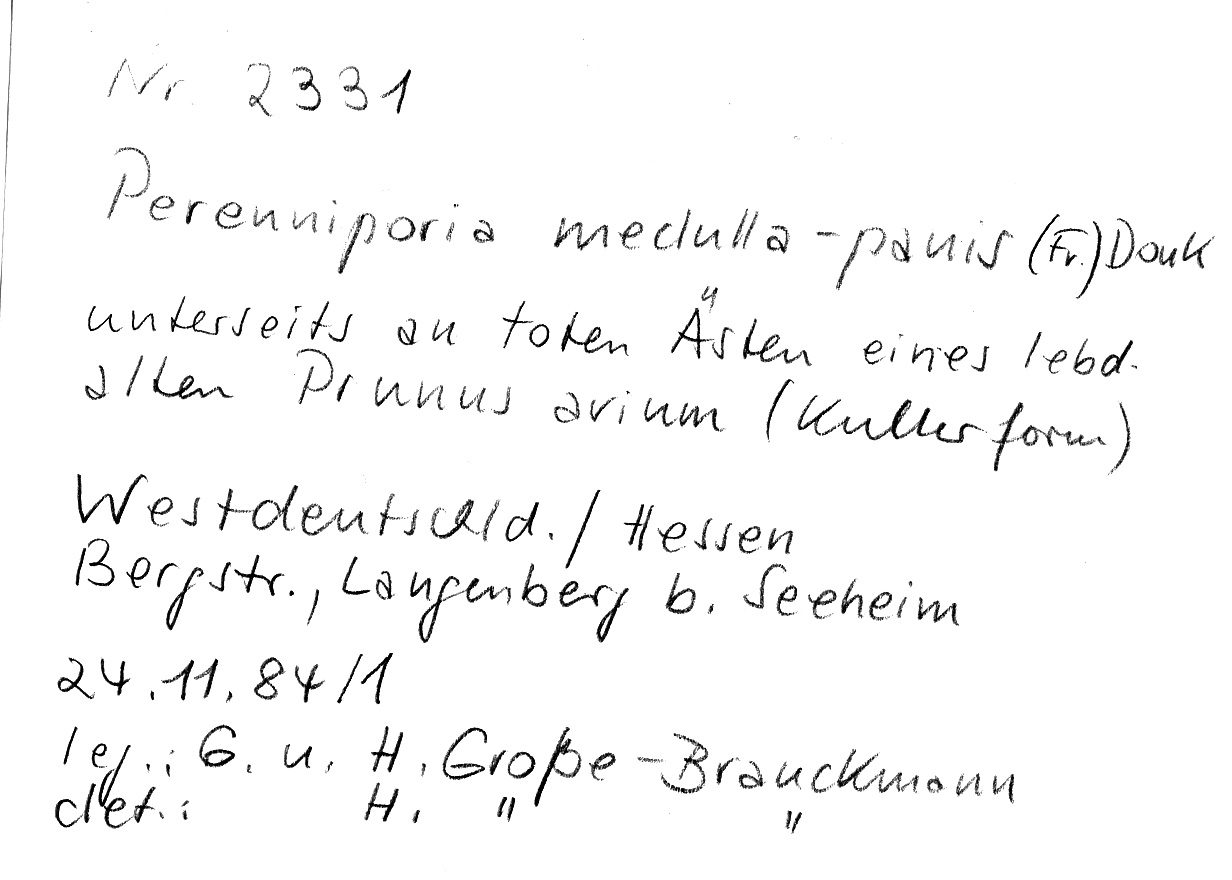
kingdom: Plantae
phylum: Tracheophyta
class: Magnoliopsida
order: Rosales
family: Rosaceae
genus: Prunus
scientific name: Prunus avium
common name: Sweet cherry
